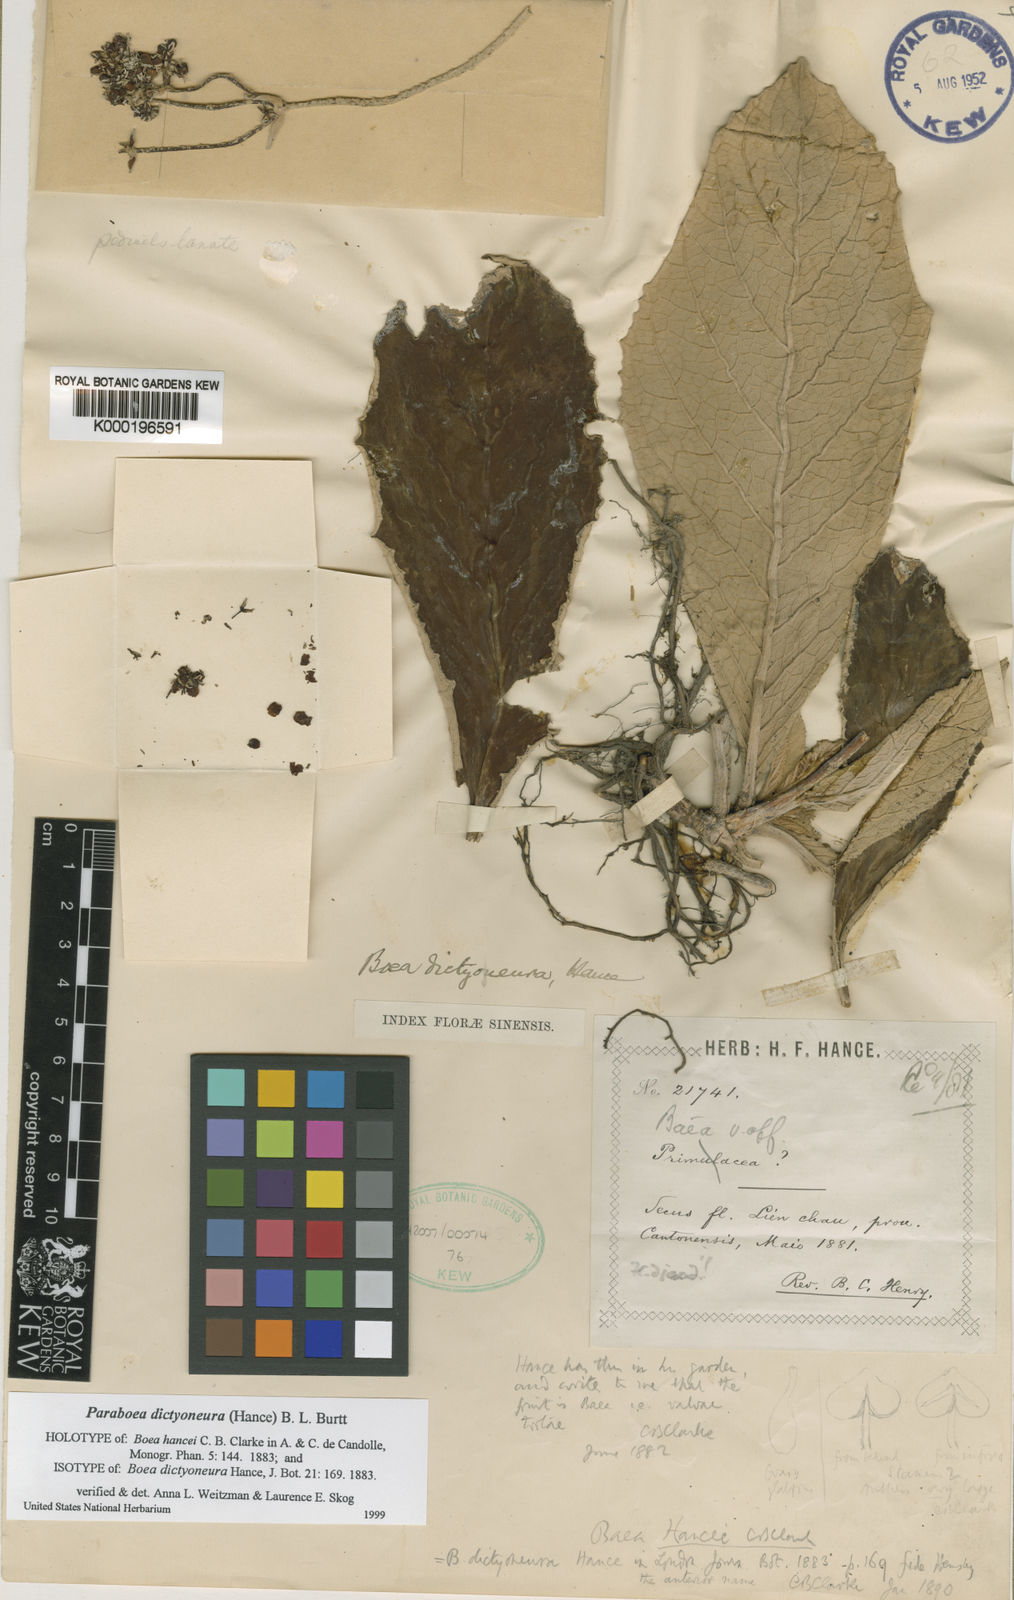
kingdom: Plantae
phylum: Tracheophyta
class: Magnoliopsida
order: Lamiales
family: Gesneriaceae
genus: Paraboea
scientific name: Paraboea dictyoneura
